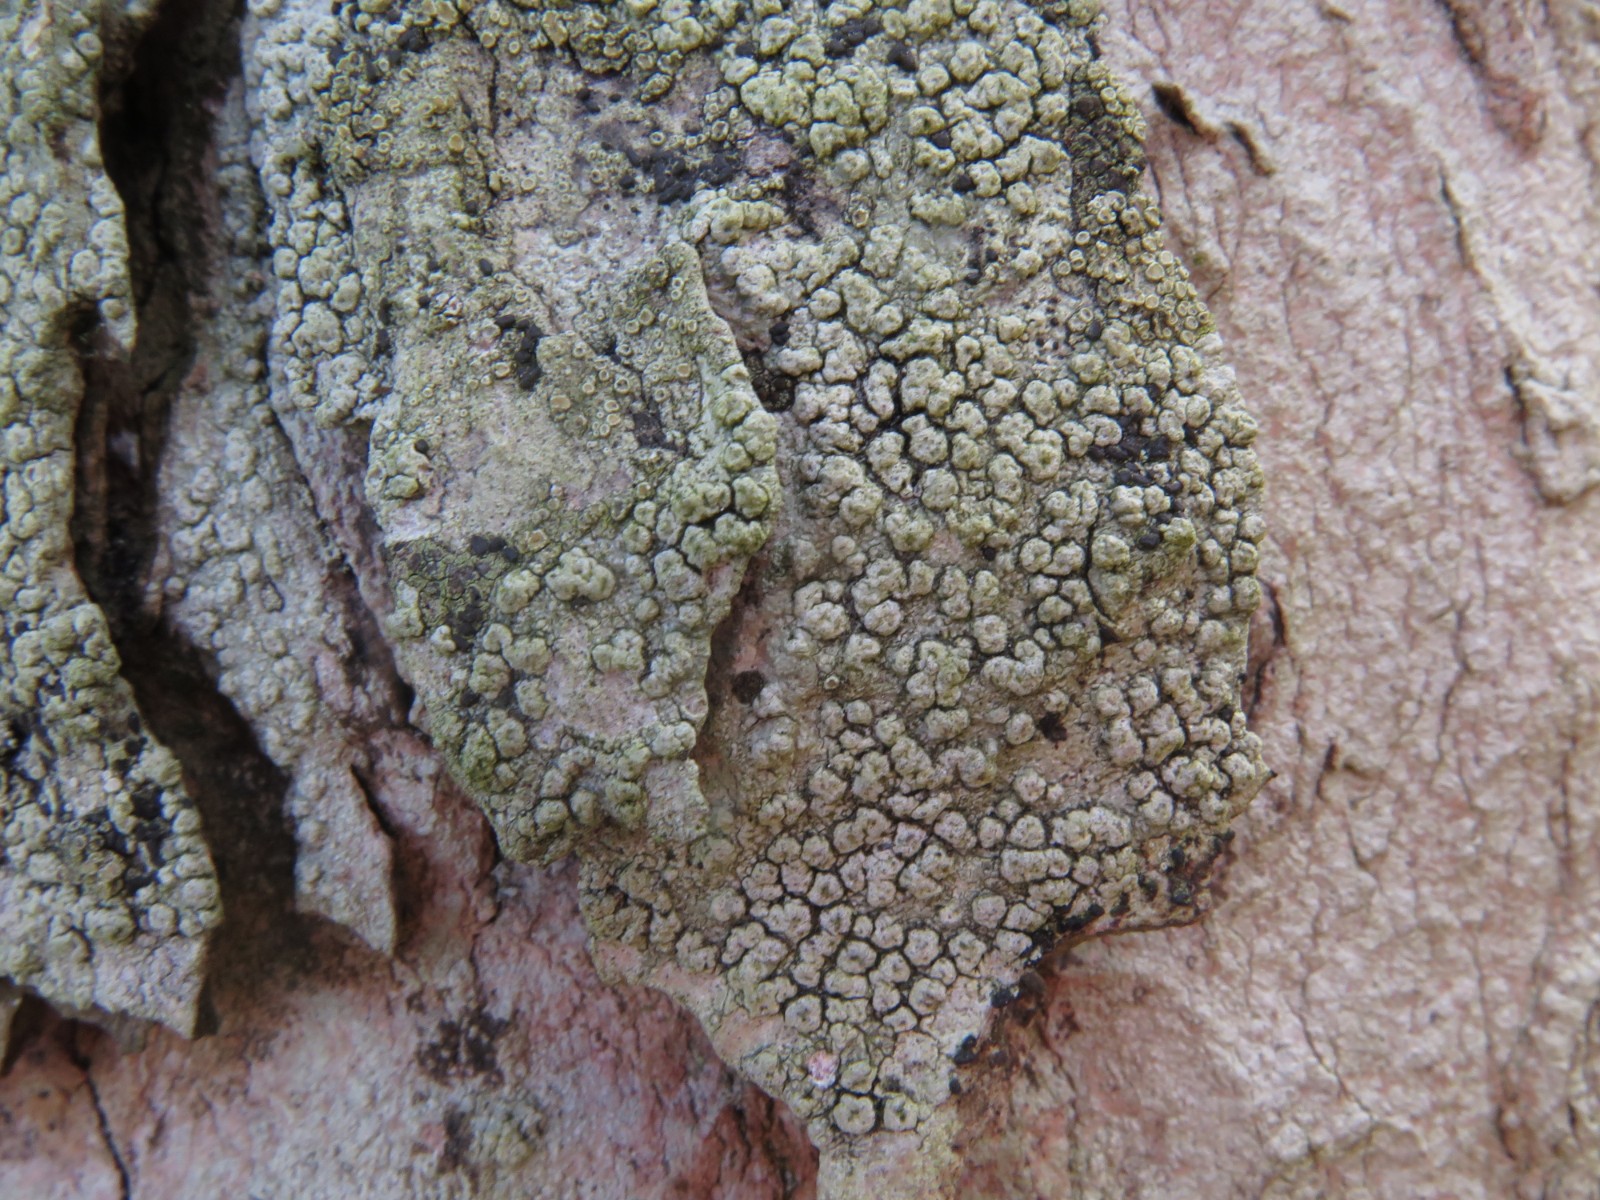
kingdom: Fungi
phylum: Ascomycota
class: Lecanoromycetes
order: Pertusariales
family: Pertusariaceae
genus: Pertusaria
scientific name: Pertusaria pertusa
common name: almindelig prikvortelav
